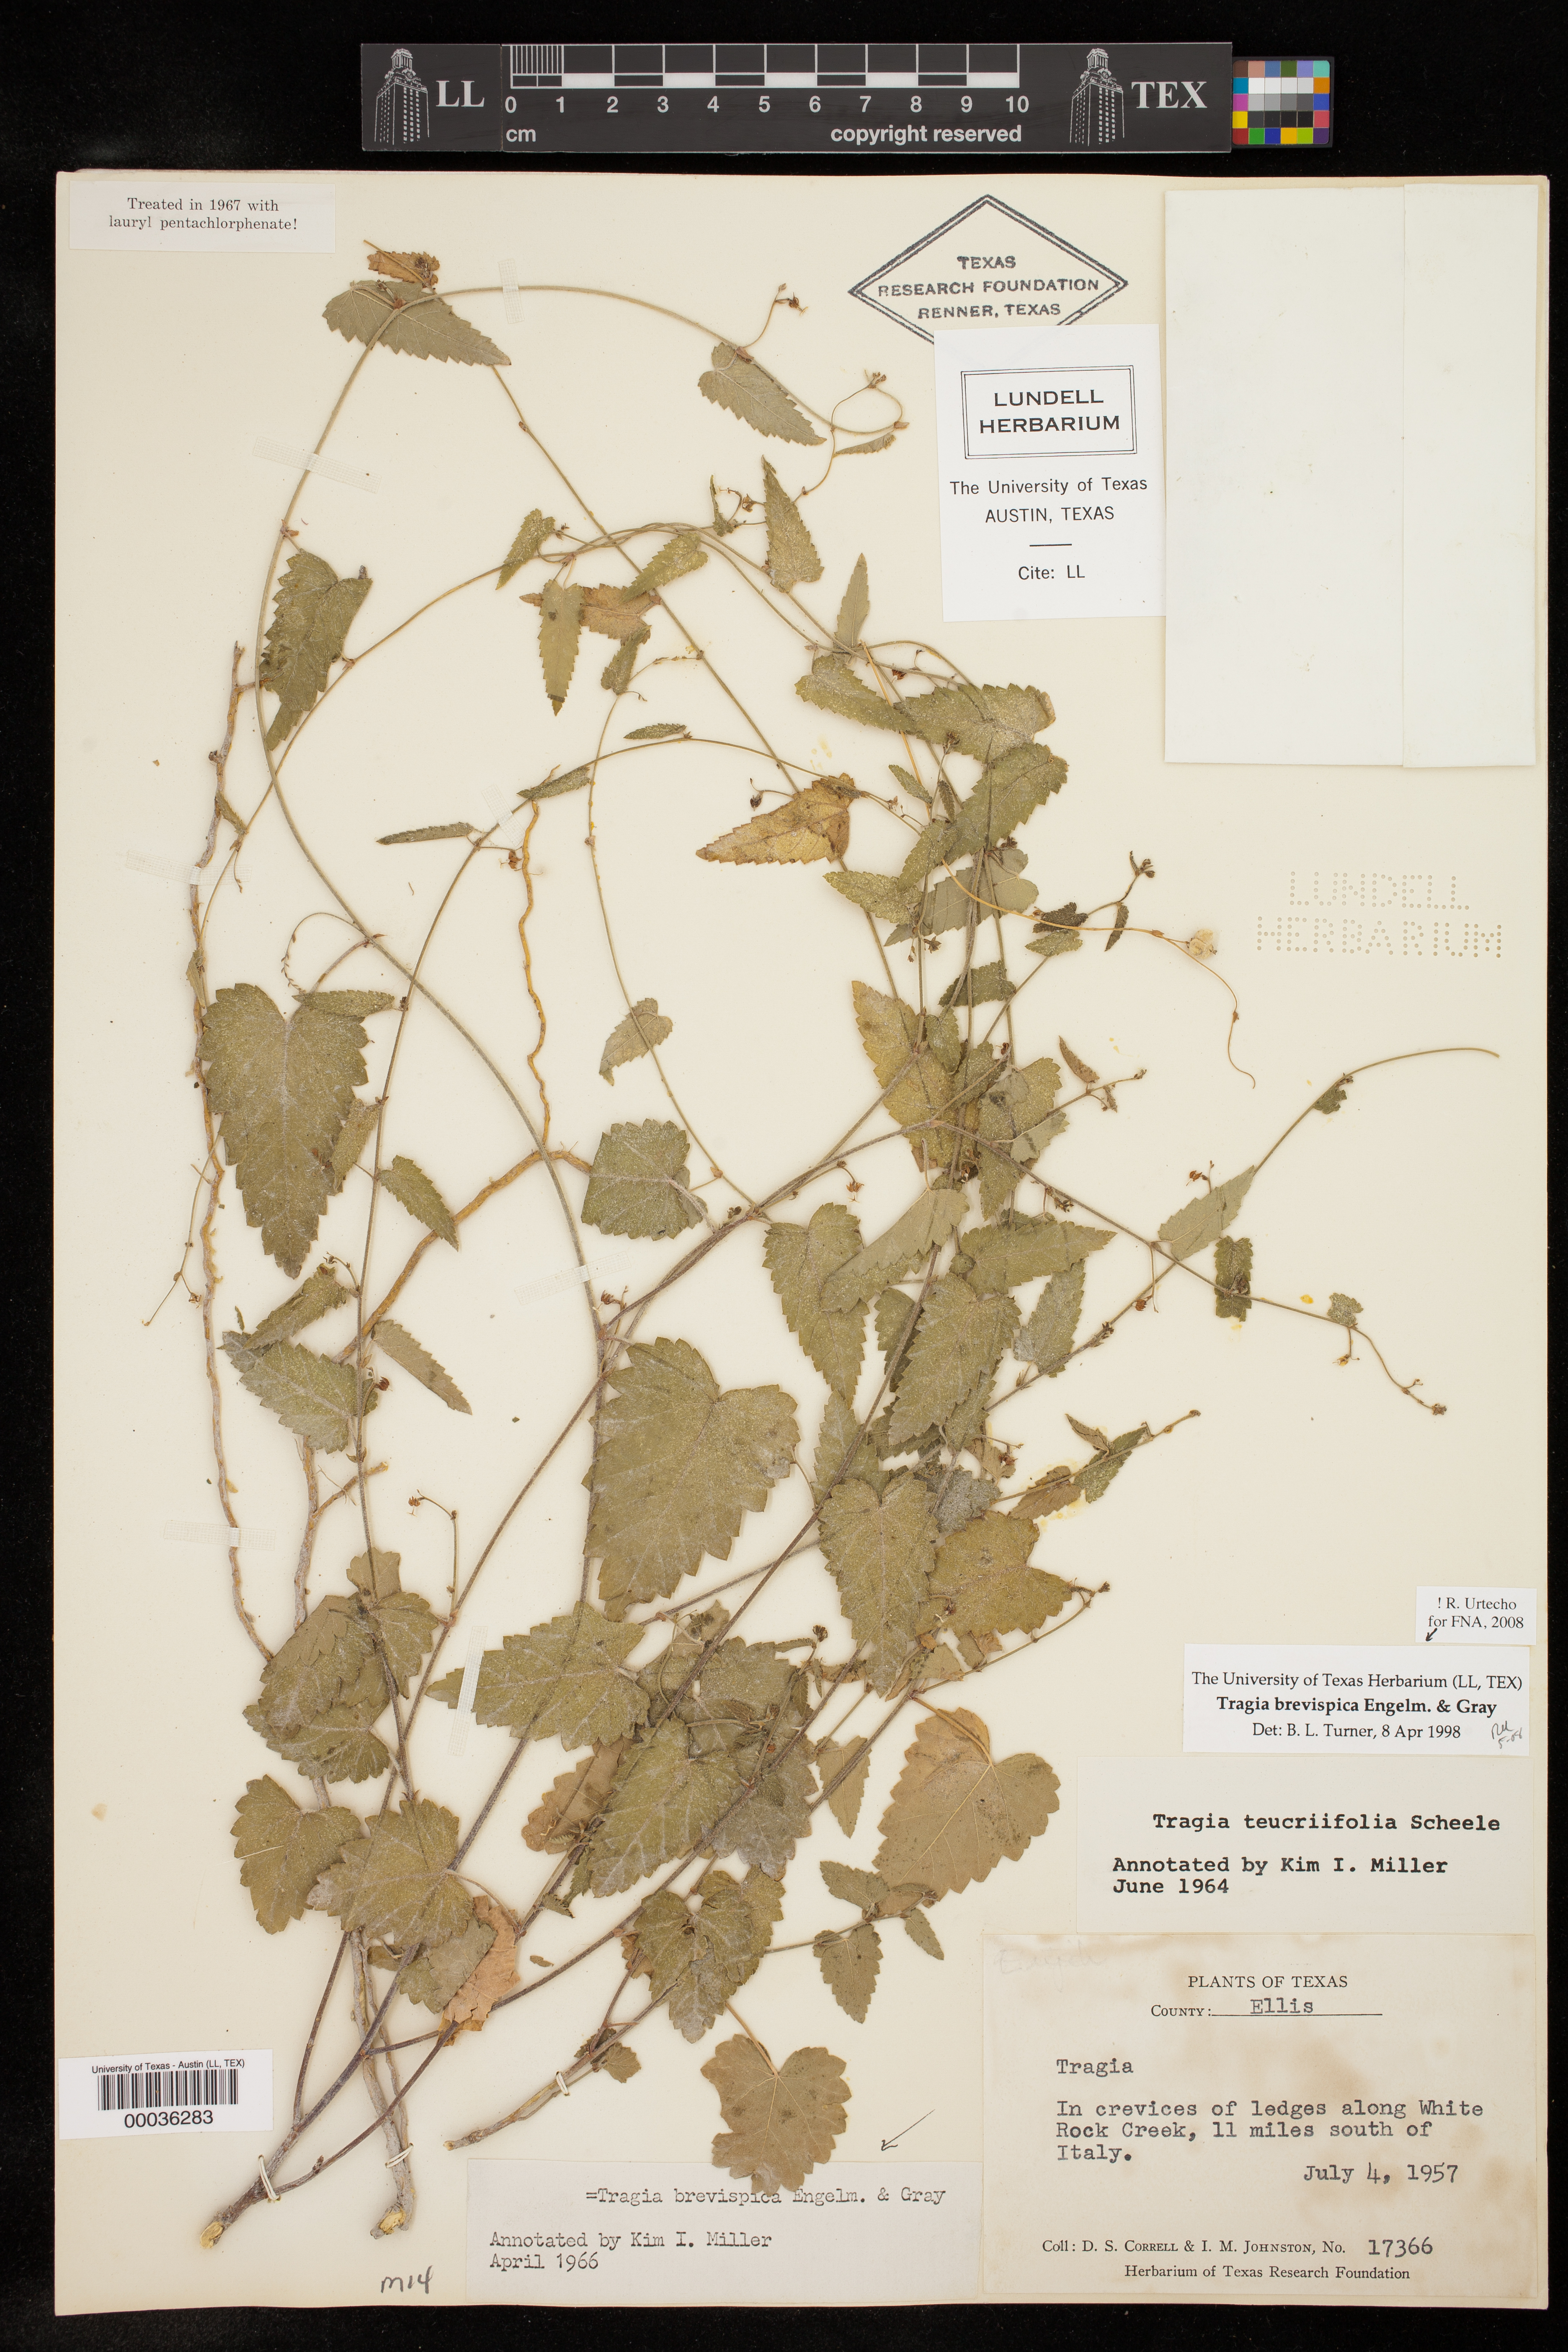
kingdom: Plantae
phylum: Tracheophyta
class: Magnoliopsida
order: Malpighiales
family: Euphorbiaceae
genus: Tragia
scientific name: Tragia brevispica
